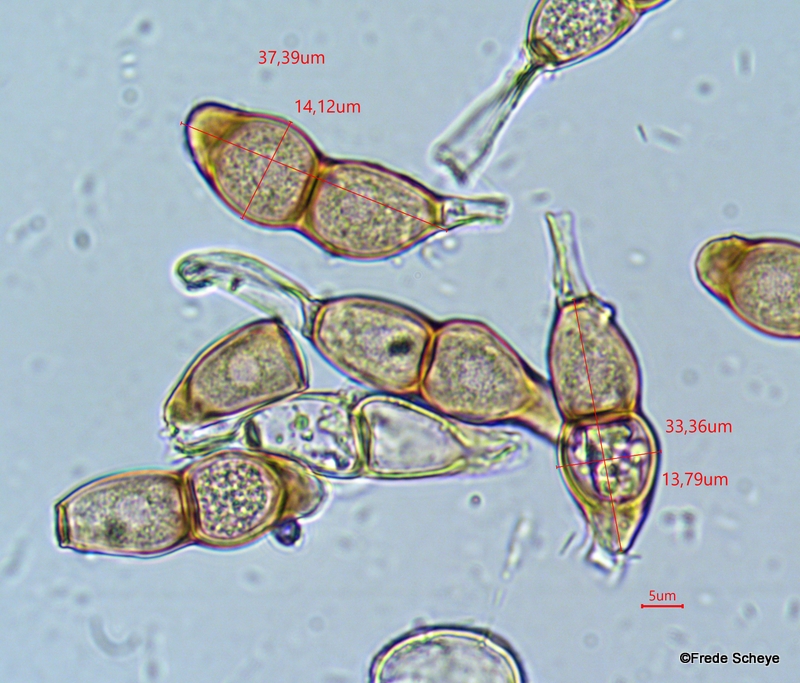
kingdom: Fungi
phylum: Basidiomycota
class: Pucciniomycetes
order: Pucciniales
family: Pucciniaceae
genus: Puccinia
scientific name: Puccinia circaeae
